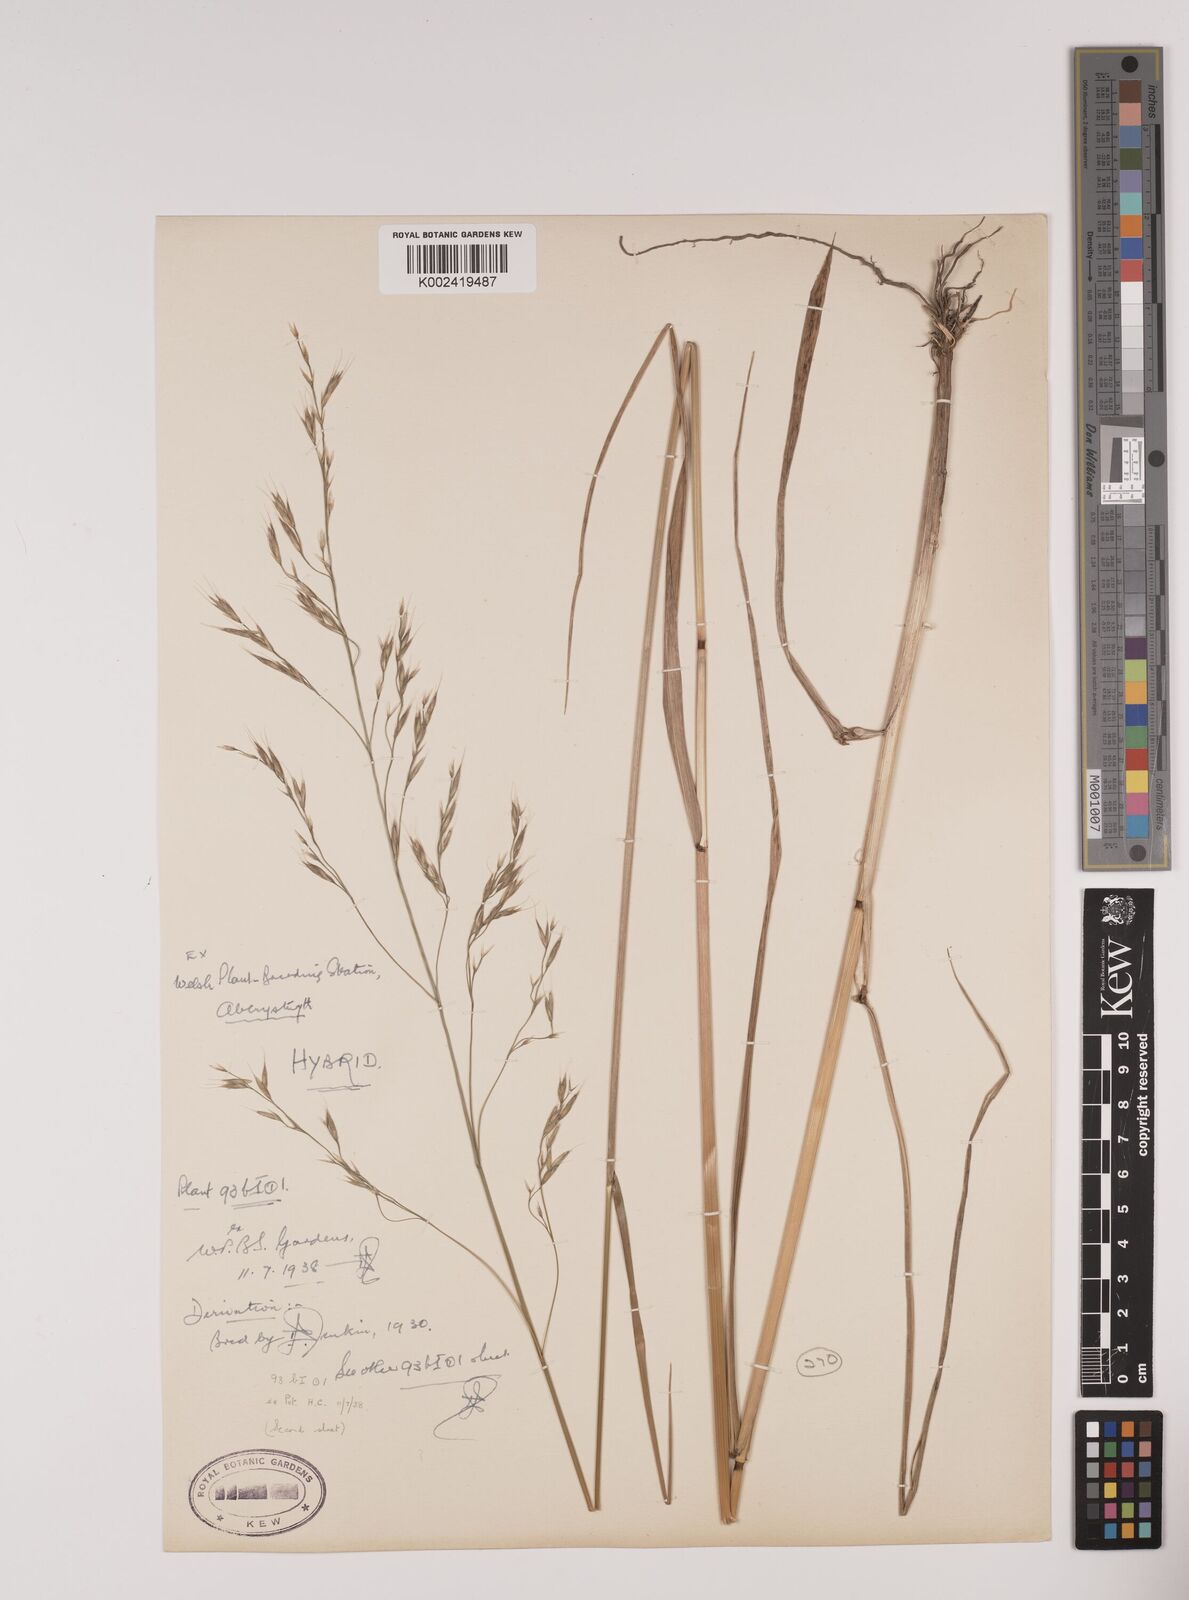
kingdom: Plantae
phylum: Tracheophyta
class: Liliopsida
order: Poales
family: Poaceae
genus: Lolium
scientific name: Lolium giganteum
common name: Giant fescue
